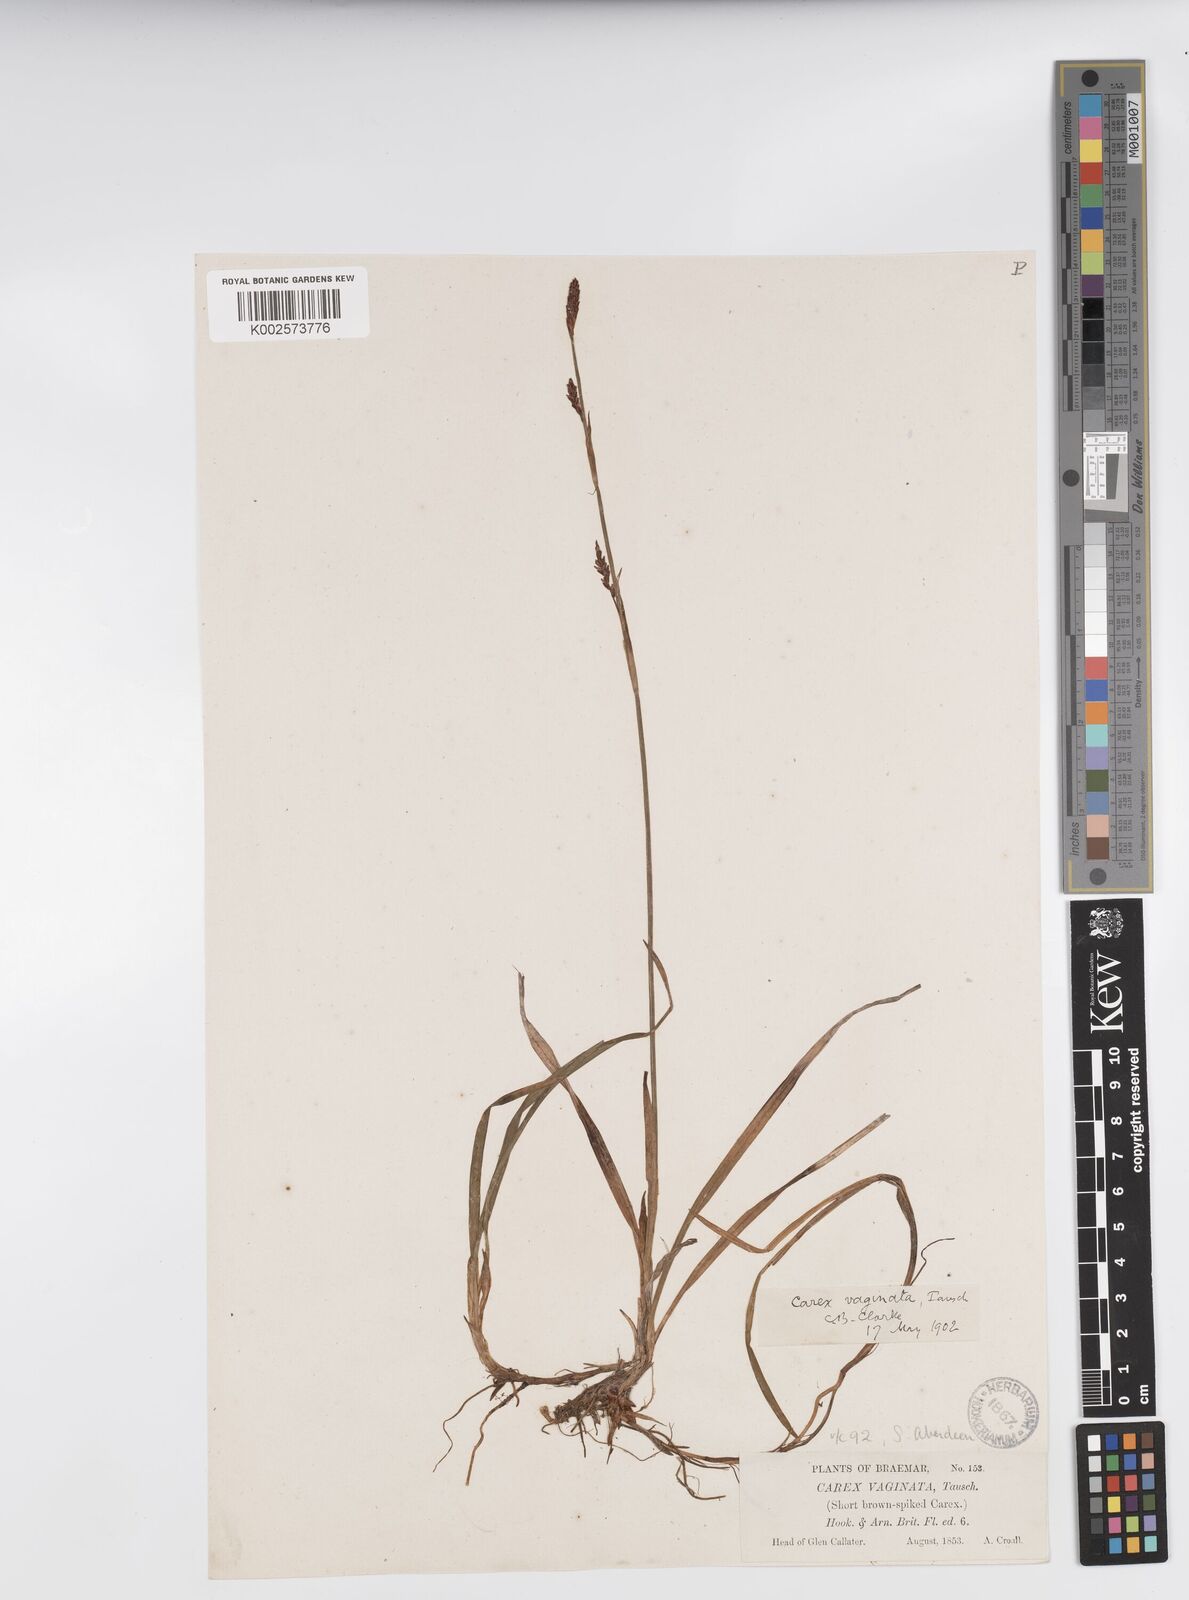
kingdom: Plantae
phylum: Tracheophyta
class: Liliopsida
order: Poales
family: Cyperaceae
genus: Carex
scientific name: Carex vaginata
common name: Sheathed sedge
